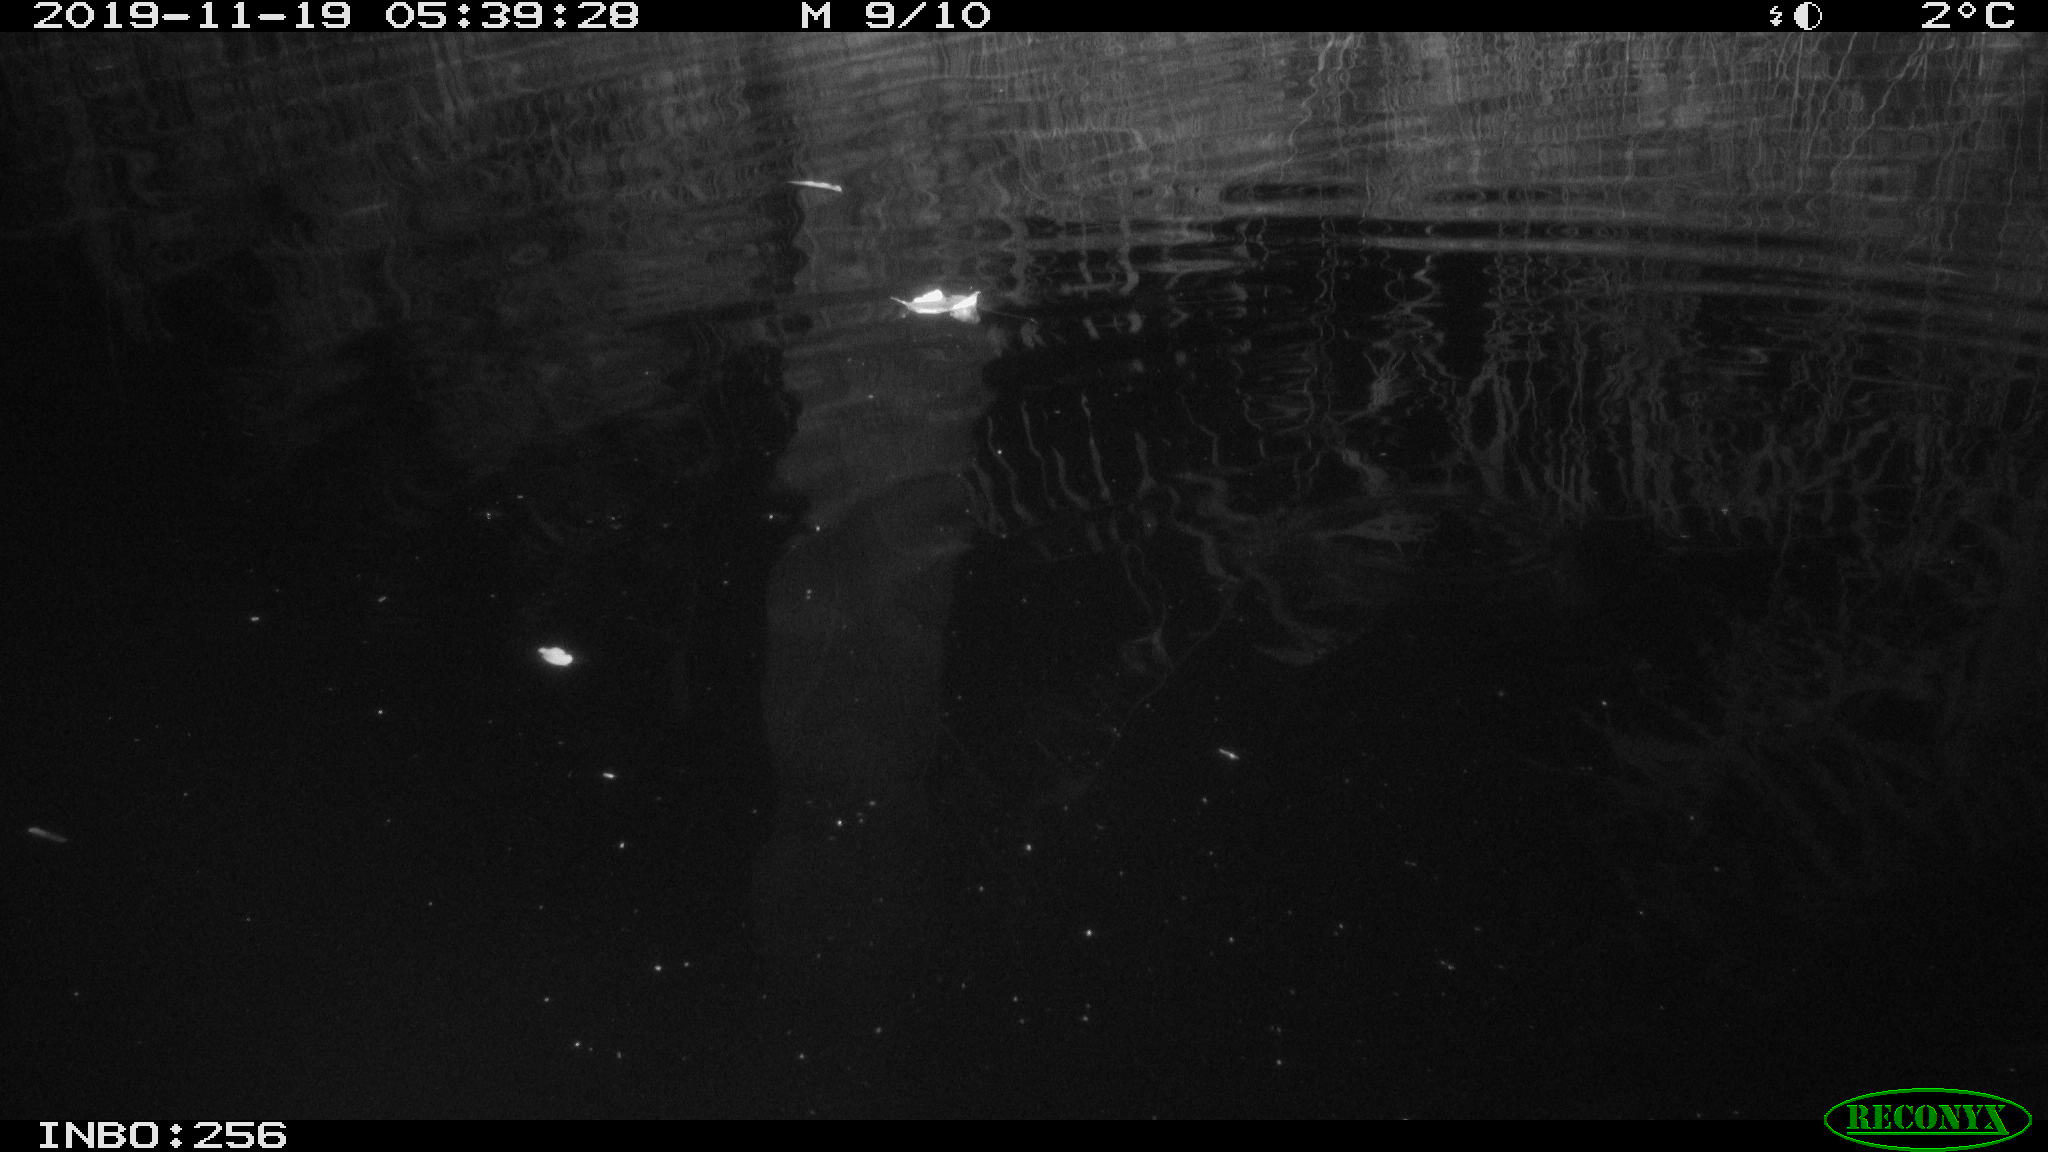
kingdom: Animalia
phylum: Chordata
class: Mammalia
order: Rodentia
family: Muridae
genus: Rattus
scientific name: Rattus norvegicus
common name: Brown rat
